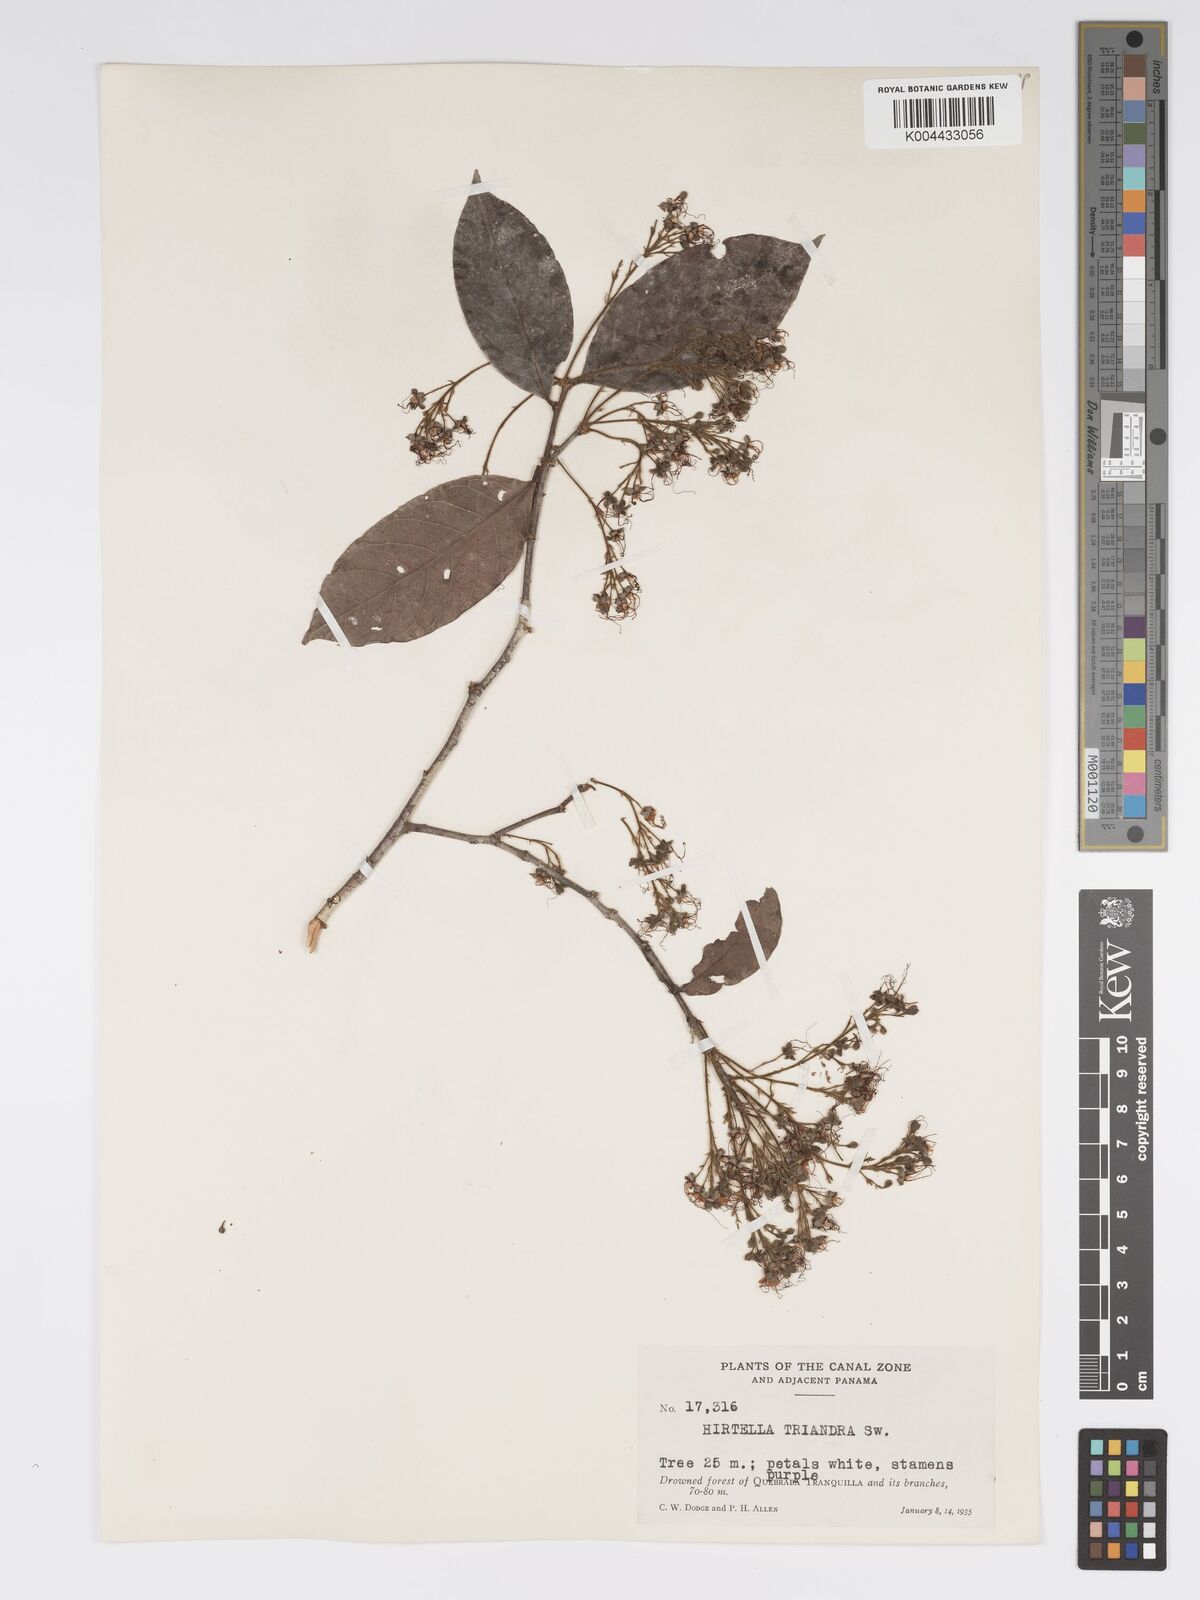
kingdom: Plantae
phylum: Tracheophyta
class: Magnoliopsida
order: Malpighiales
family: Chrysobalanaceae
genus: Hirtella
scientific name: Hirtella triandra
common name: Hairy plum
